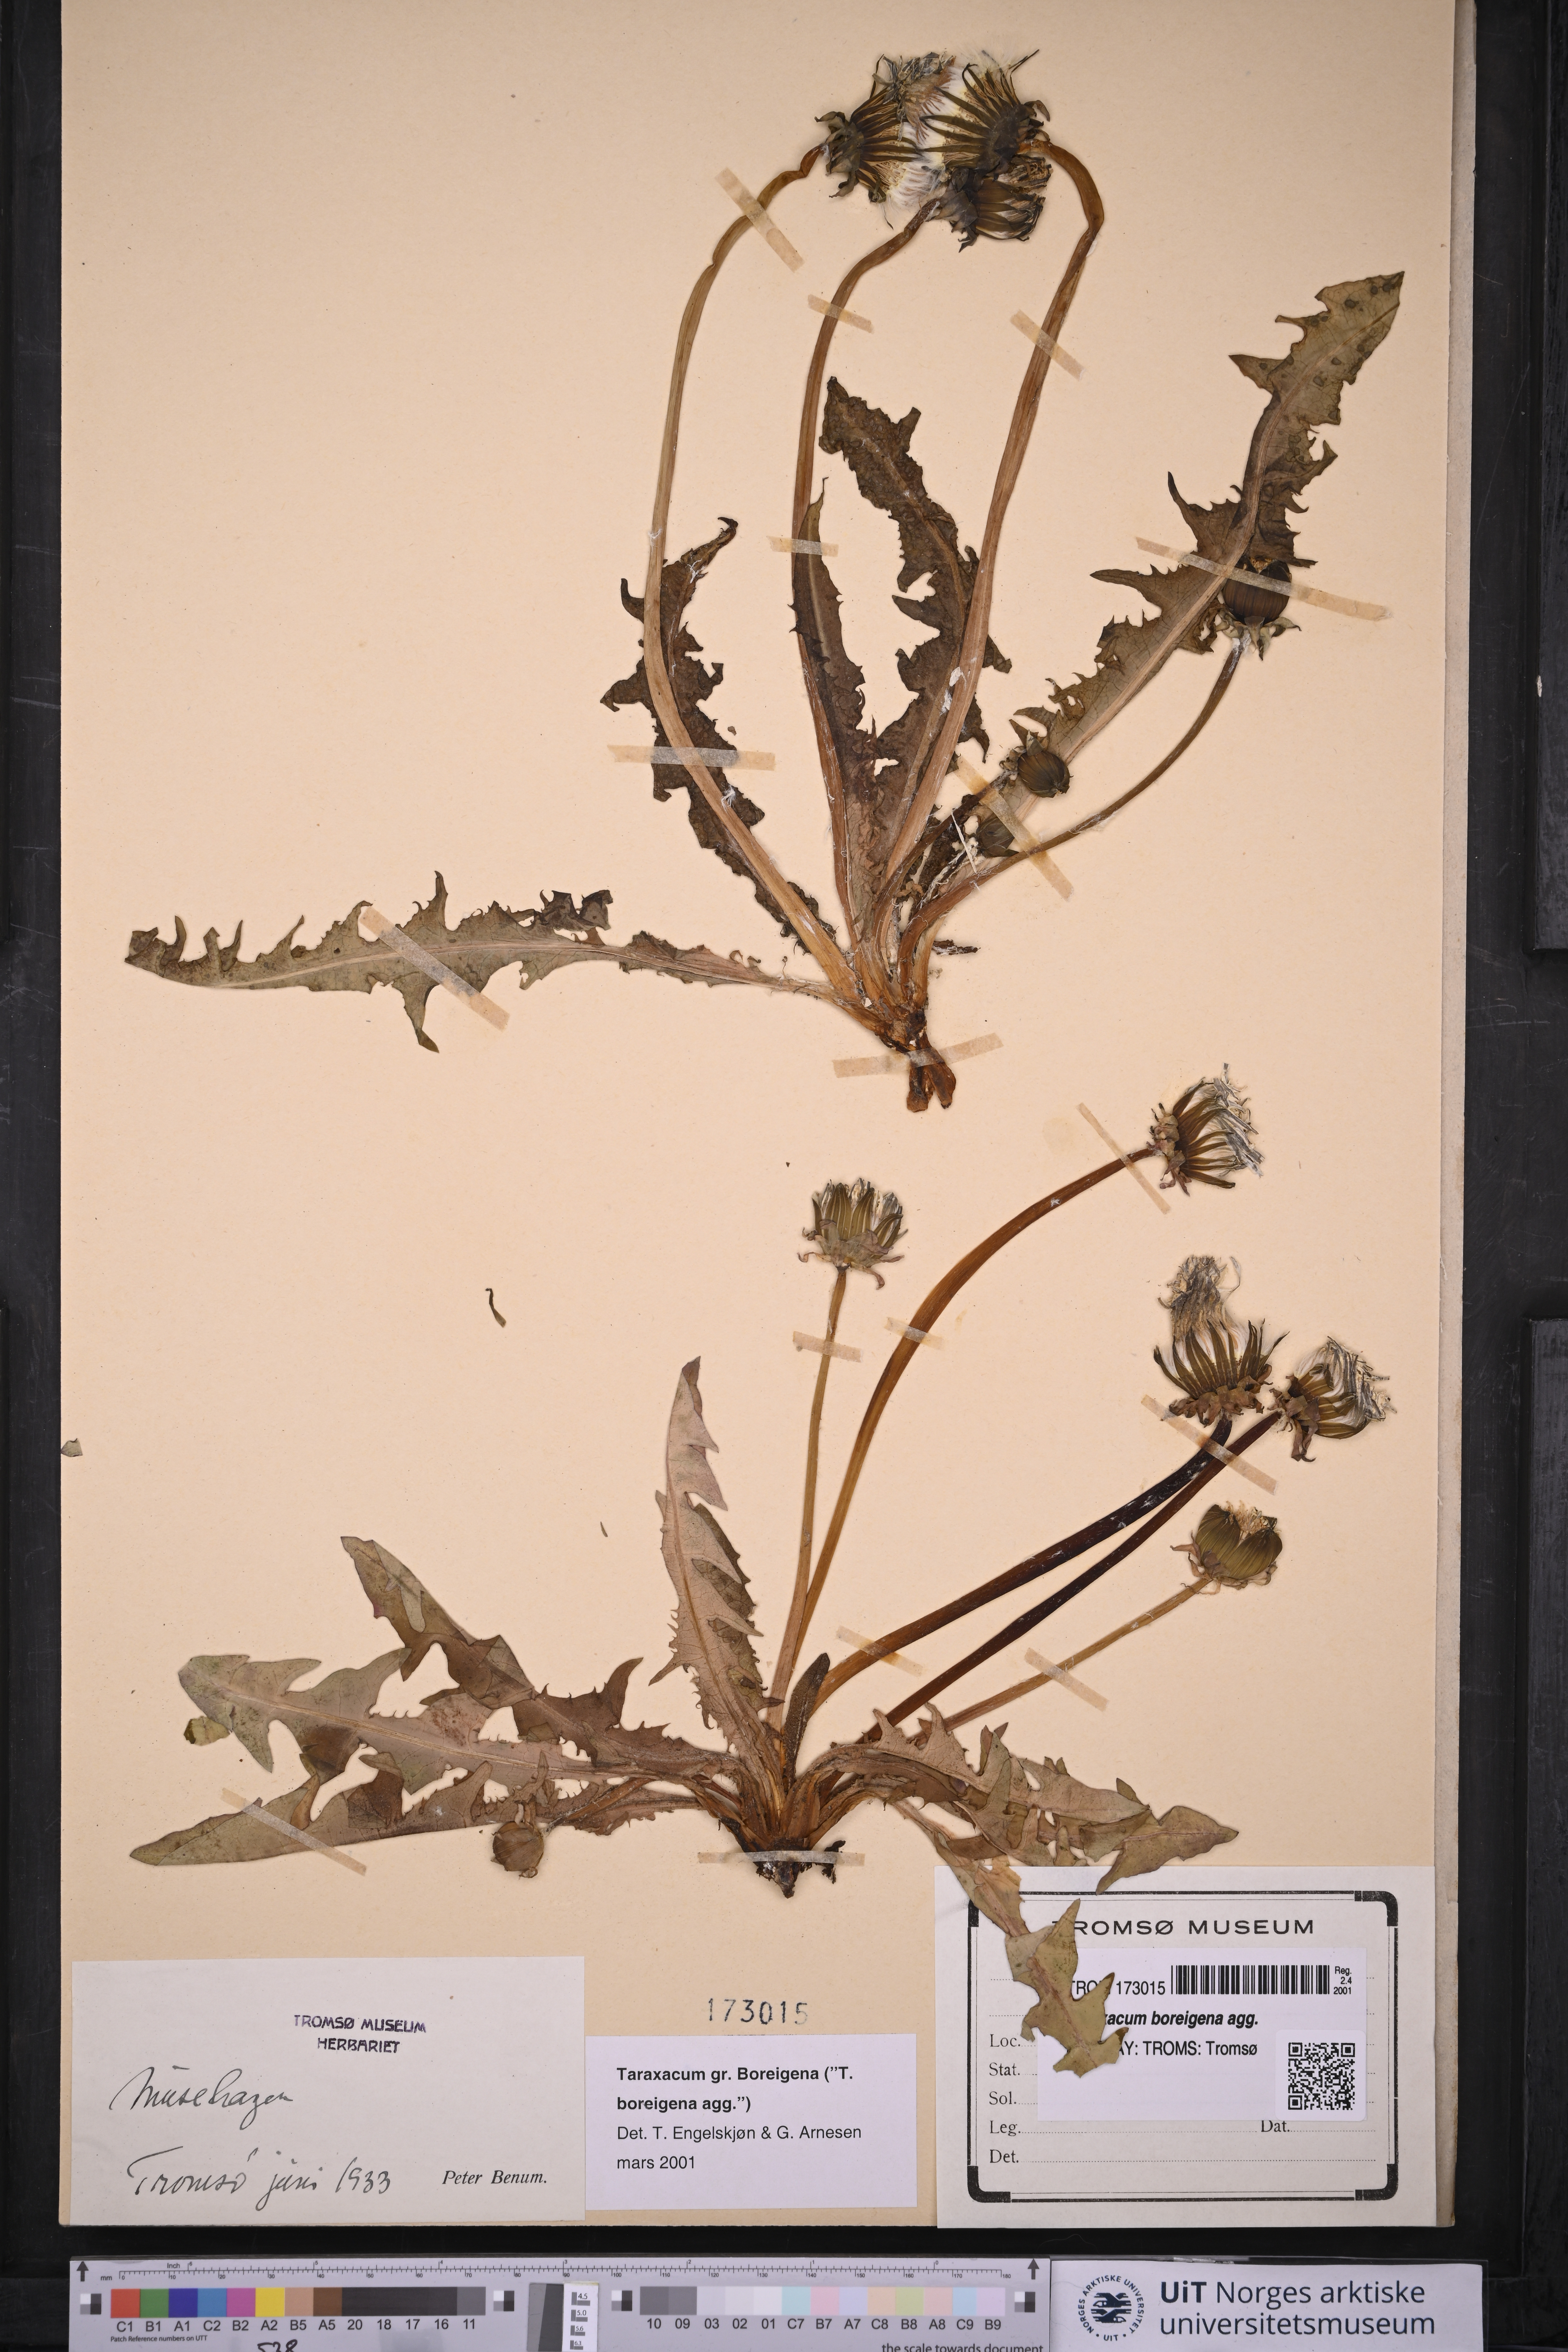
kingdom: Plantae
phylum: Tracheophyta
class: Magnoliopsida
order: Asterales
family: Asteraceae
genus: Taraxacum
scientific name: Taraxacum
